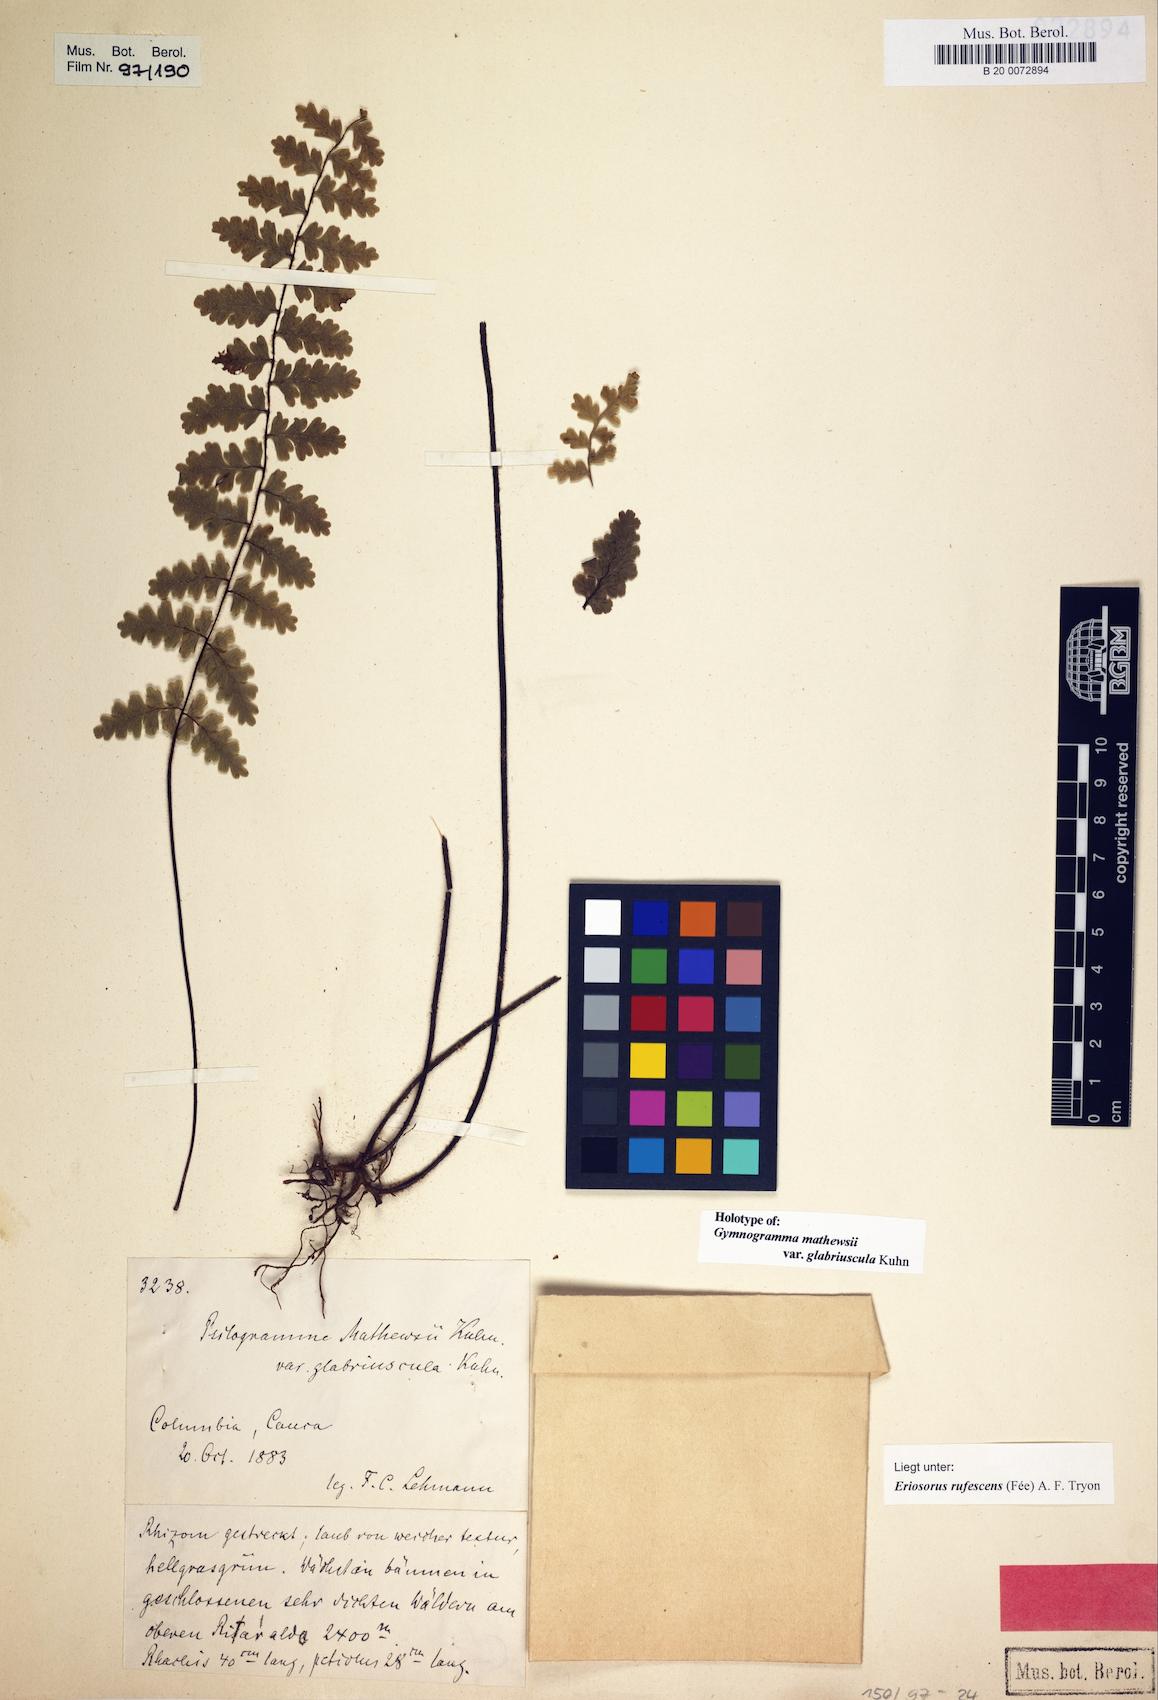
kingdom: Plantae
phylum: Tracheophyta
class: Polypodiopsida
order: Polypodiales
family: Pteridaceae
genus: Jamesonia
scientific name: Jamesonia rufescens
